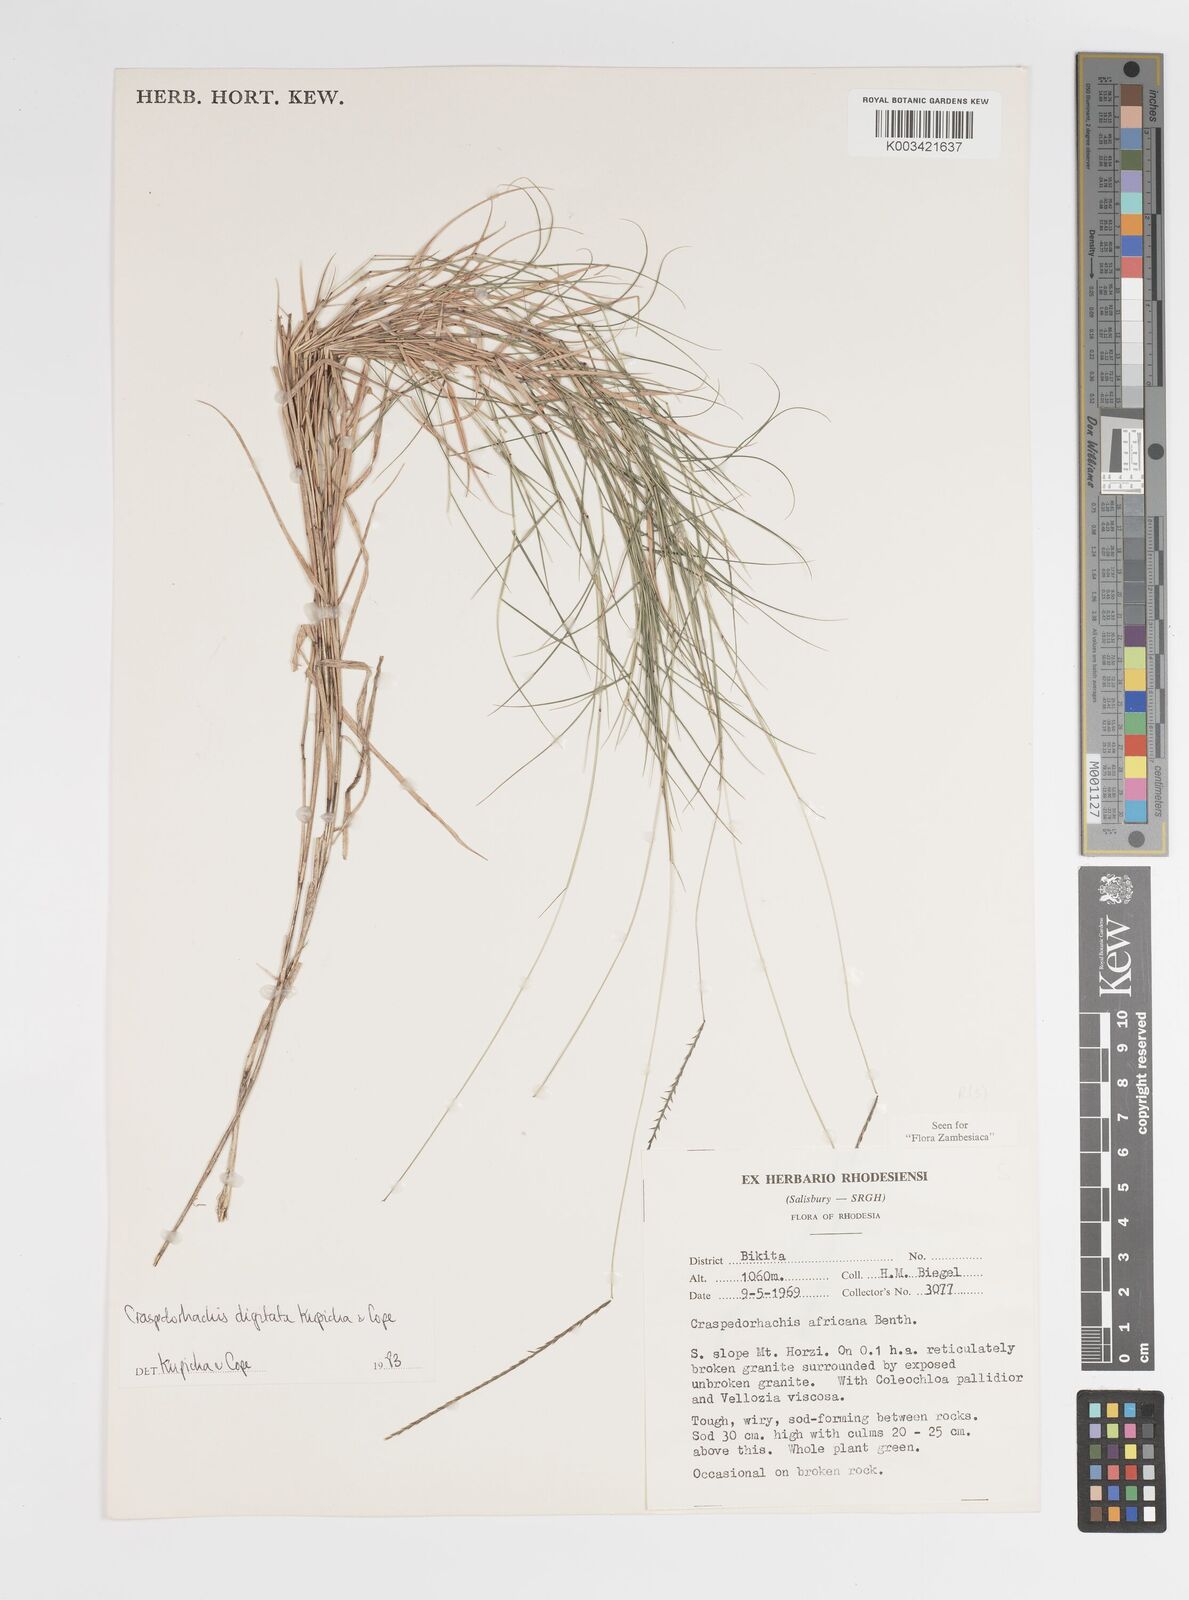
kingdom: Plantae
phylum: Tracheophyta
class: Liliopsida
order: Poales
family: Poaceae
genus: Craspedorhachis
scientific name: Craspedorhachis digitata
